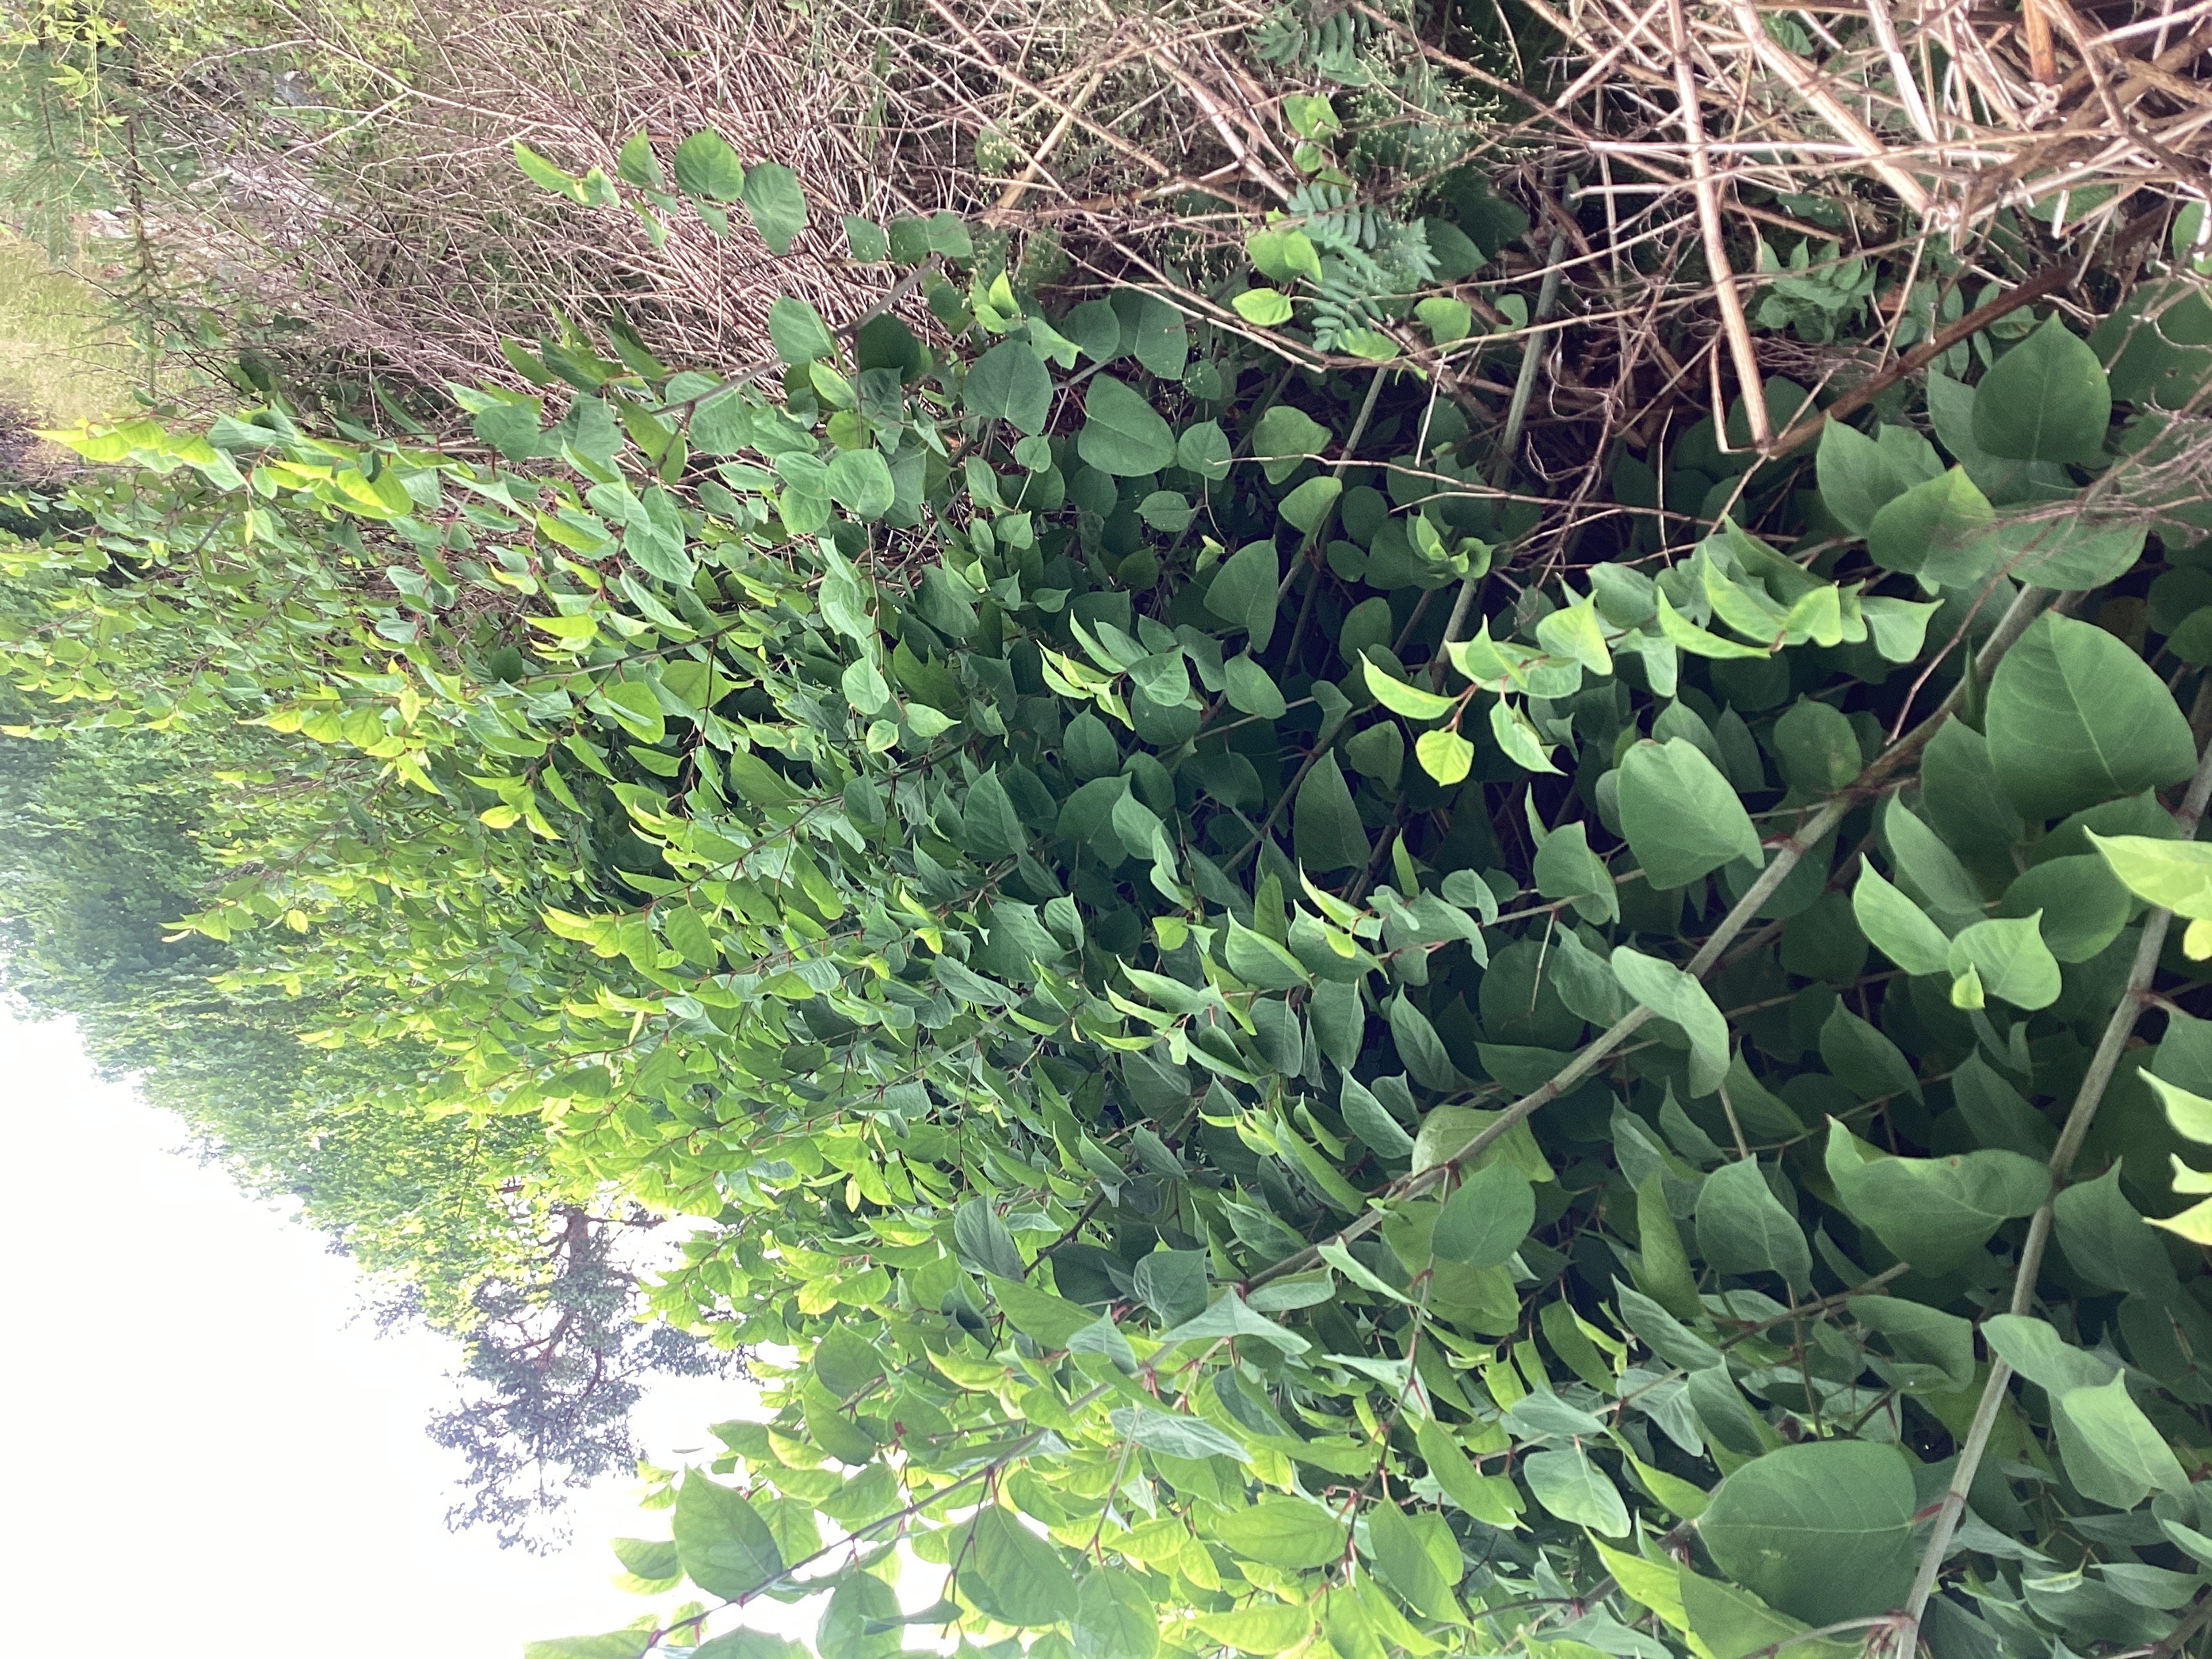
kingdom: Plantae
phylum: Tracheophyta
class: Magnoliopsida
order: Caryophyllales
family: Polygonaceae
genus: Reynoutria
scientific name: Reynoutria japonica
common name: parkslirekne
